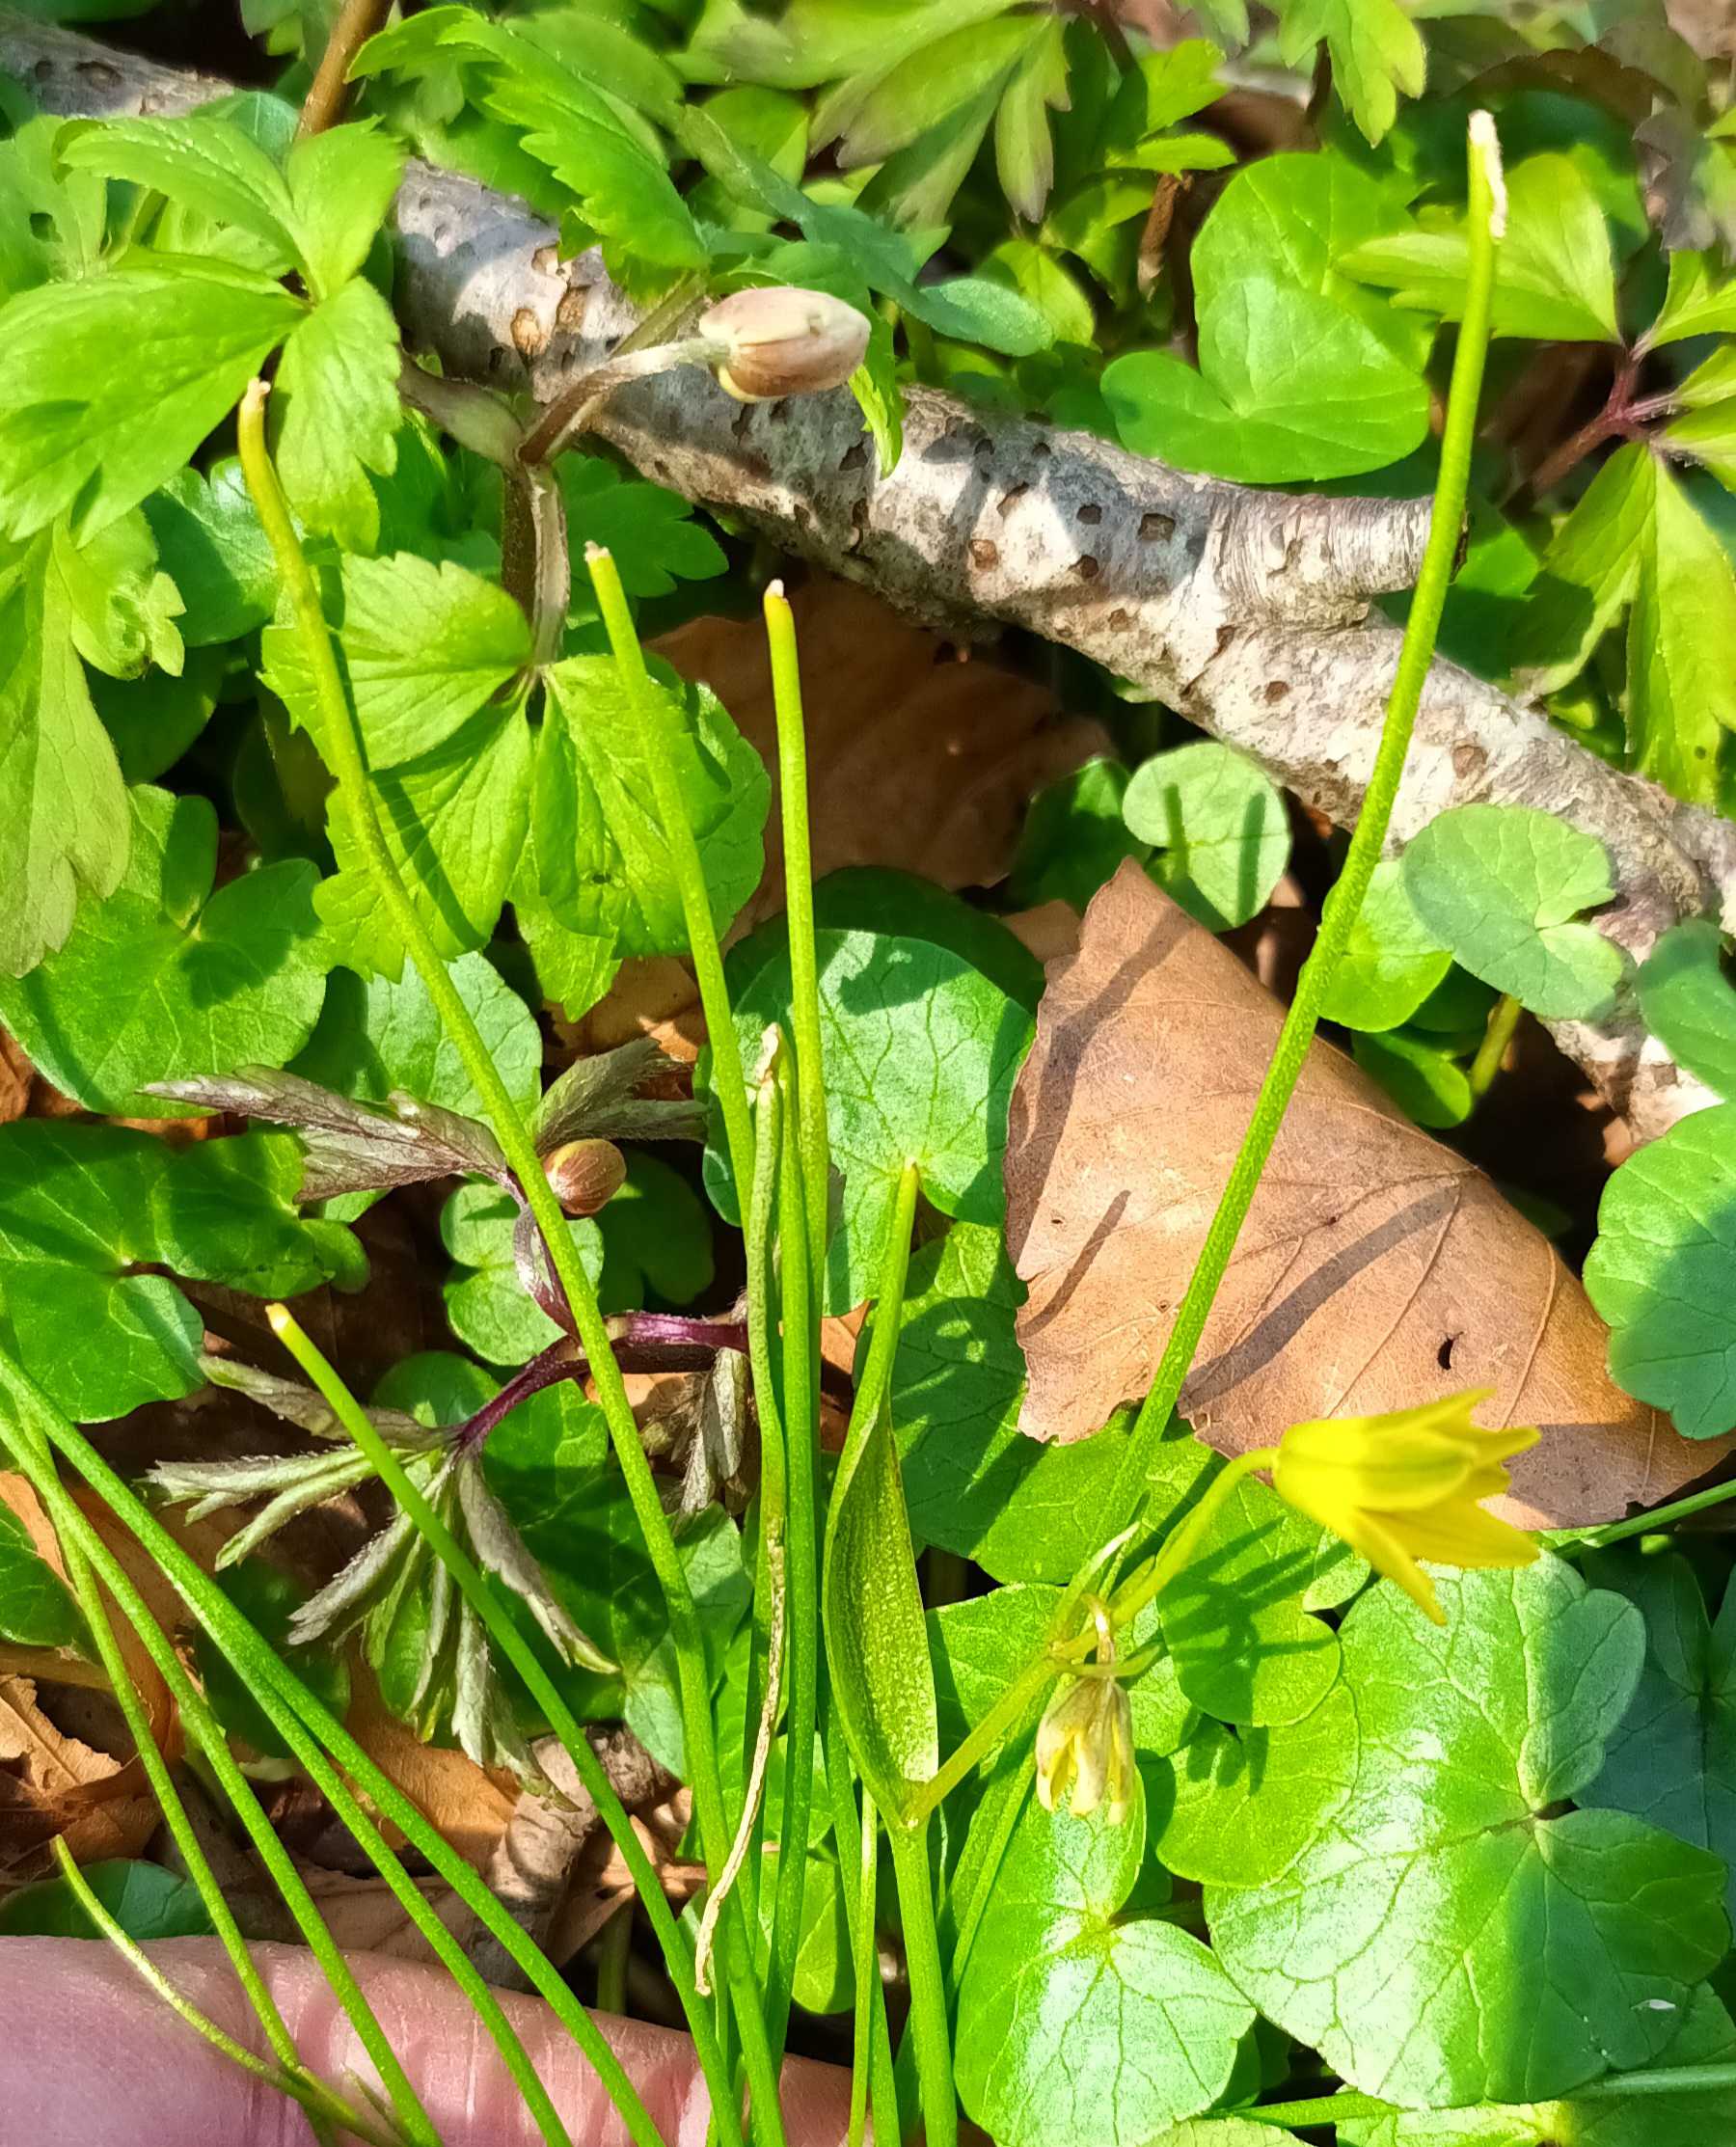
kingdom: Plantae
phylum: Tracheophyta
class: Liliopsida
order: Liliales
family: Liliaceae
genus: Gagea
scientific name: Gagea spathacea
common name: Hylster-guldstjerne
